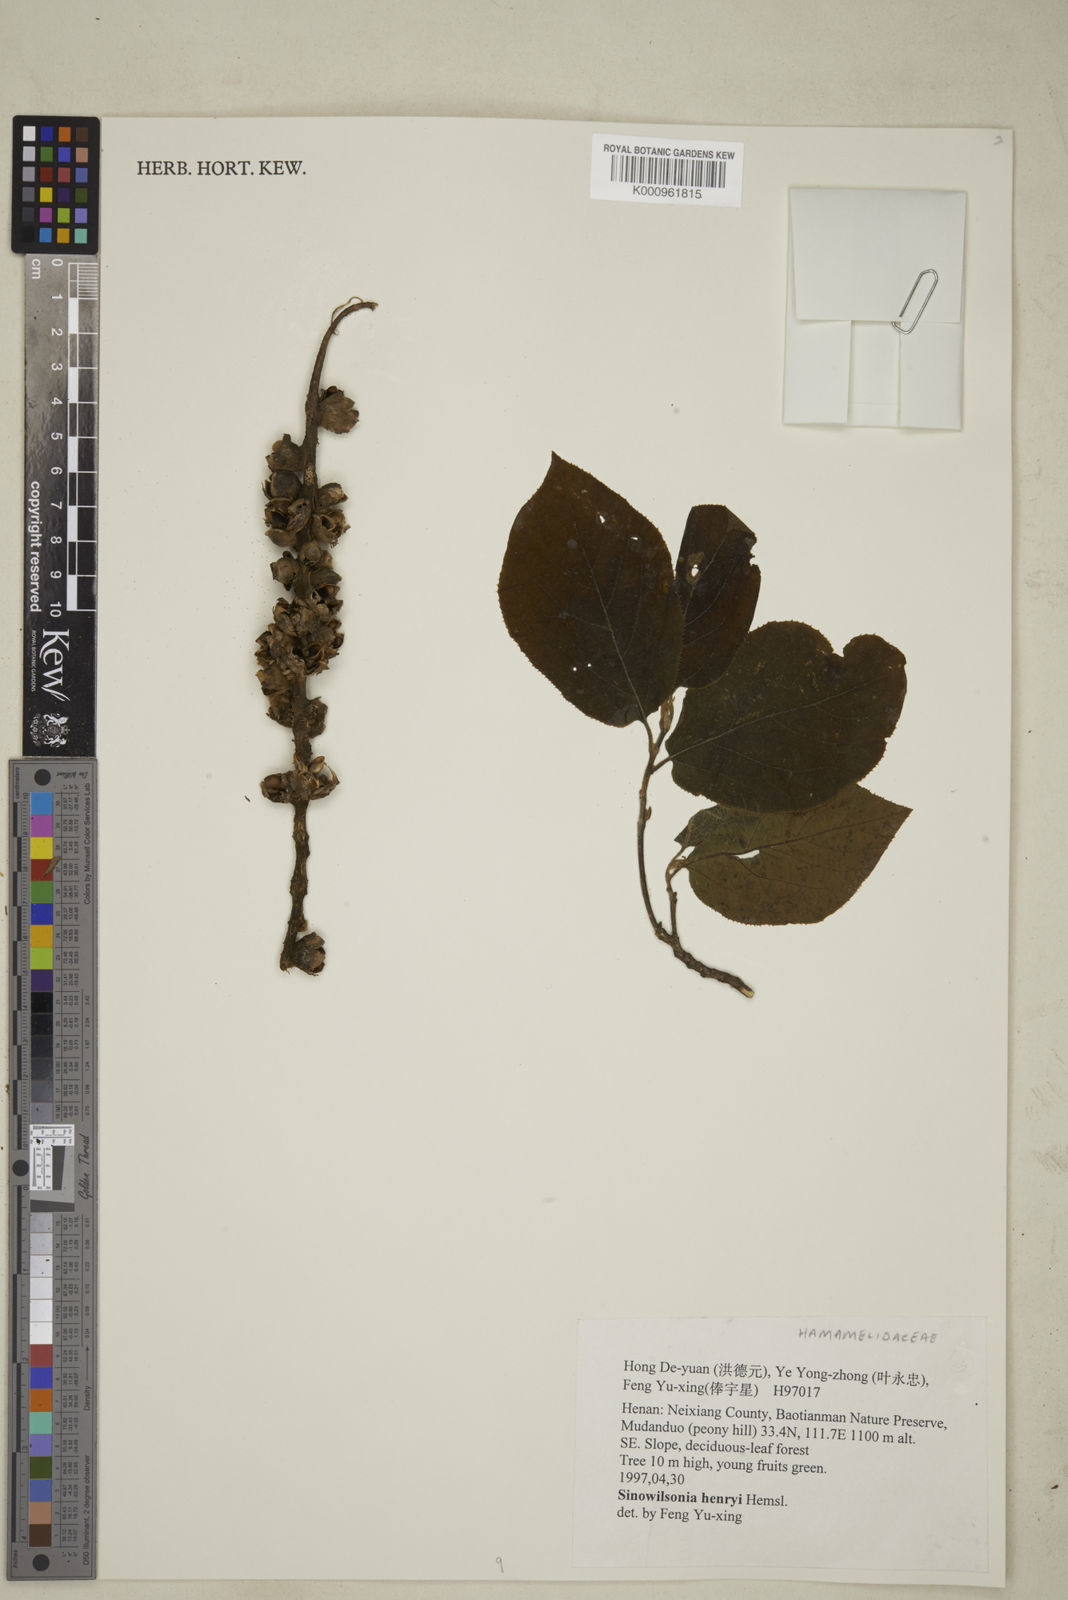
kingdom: Plantae
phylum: Tracheophyta
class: Magnoliopsida
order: Saxifragales
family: Hamamelidaceae
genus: Sinowilsonia
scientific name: Sinowilsonia henryi
